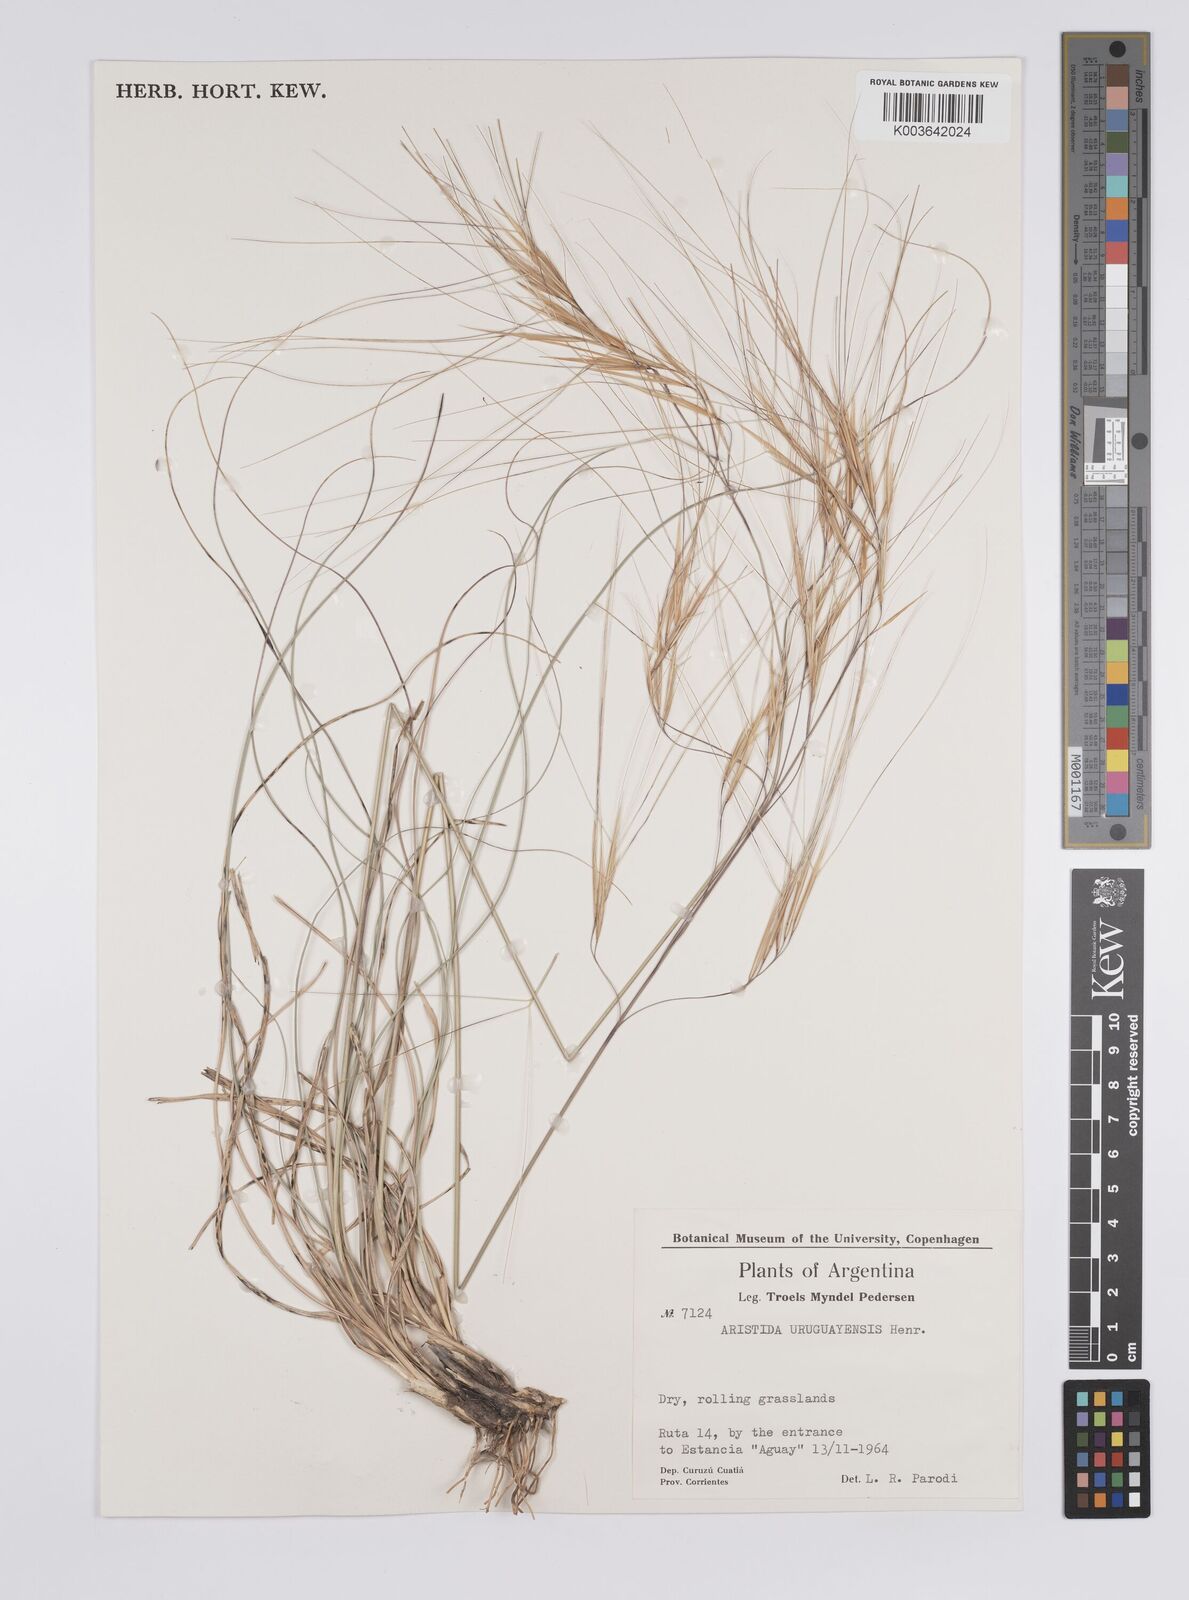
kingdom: Plantae
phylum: Tracheophyta
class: Liliopsida
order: Poales
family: Poaceae
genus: Aristida
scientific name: Aristida uruguayensis
